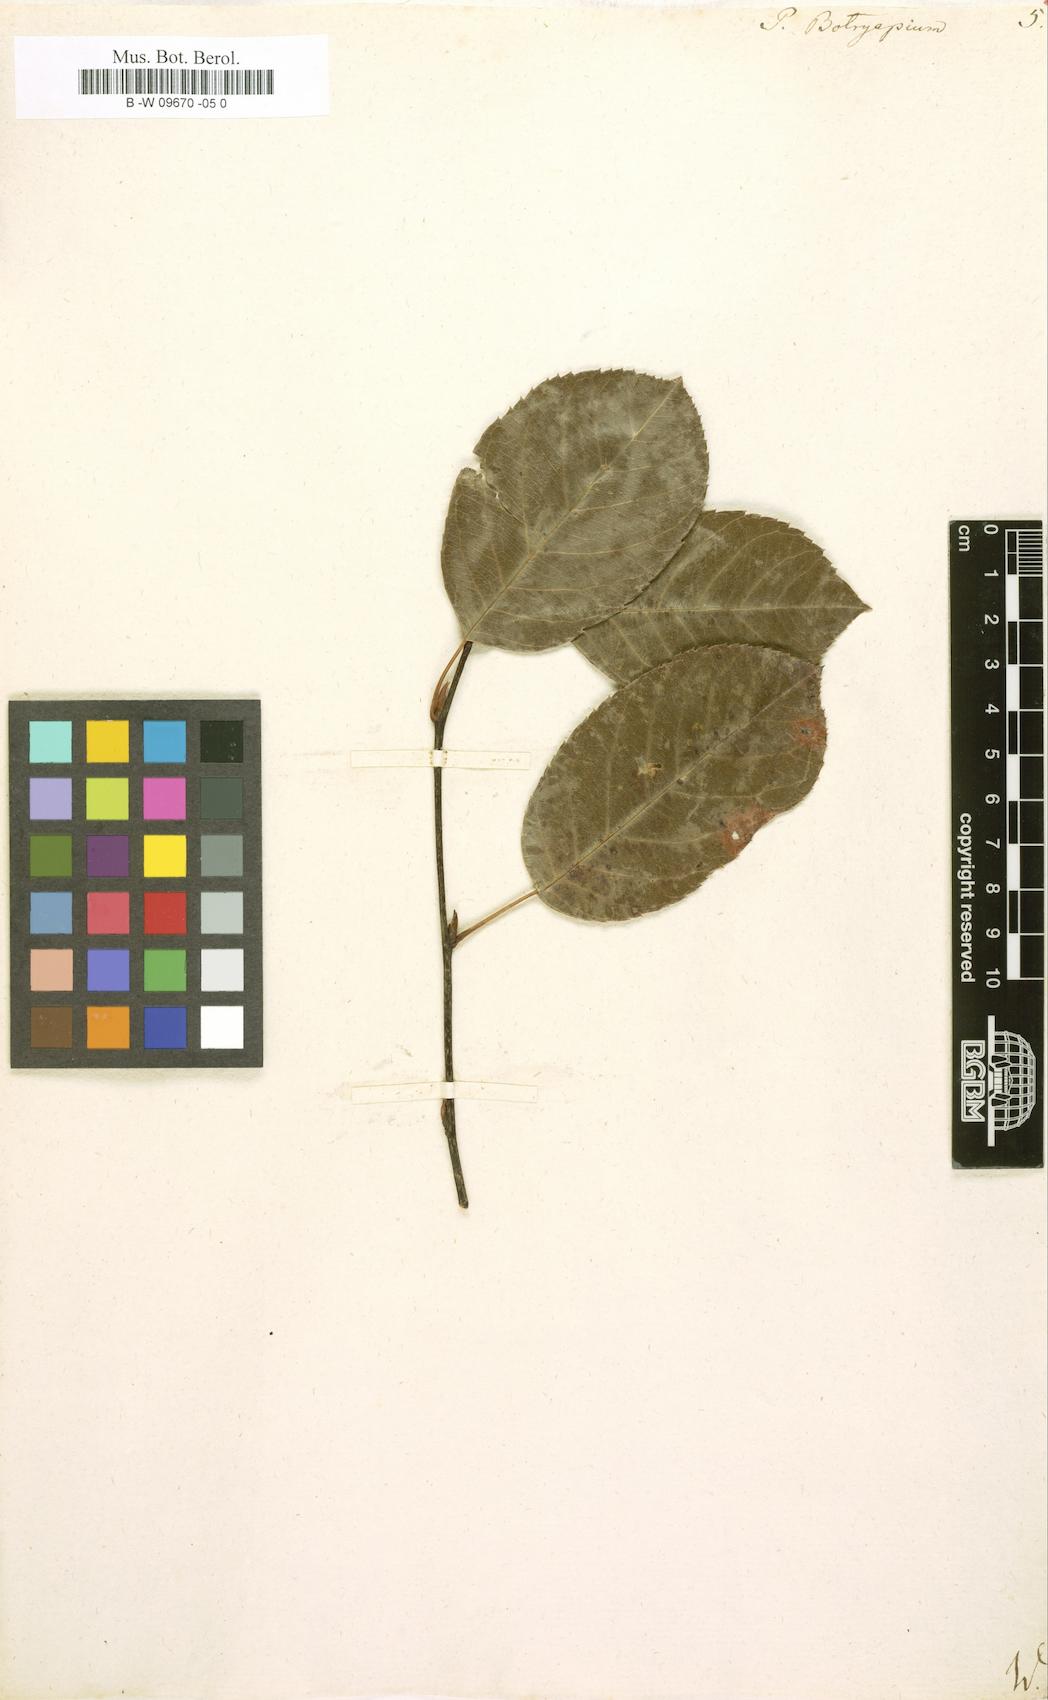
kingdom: Plantae
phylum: Tracheophyta
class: Magnoliopsida
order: Rosales
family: Rosaceae
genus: Amelanchier
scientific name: Amelanchier
